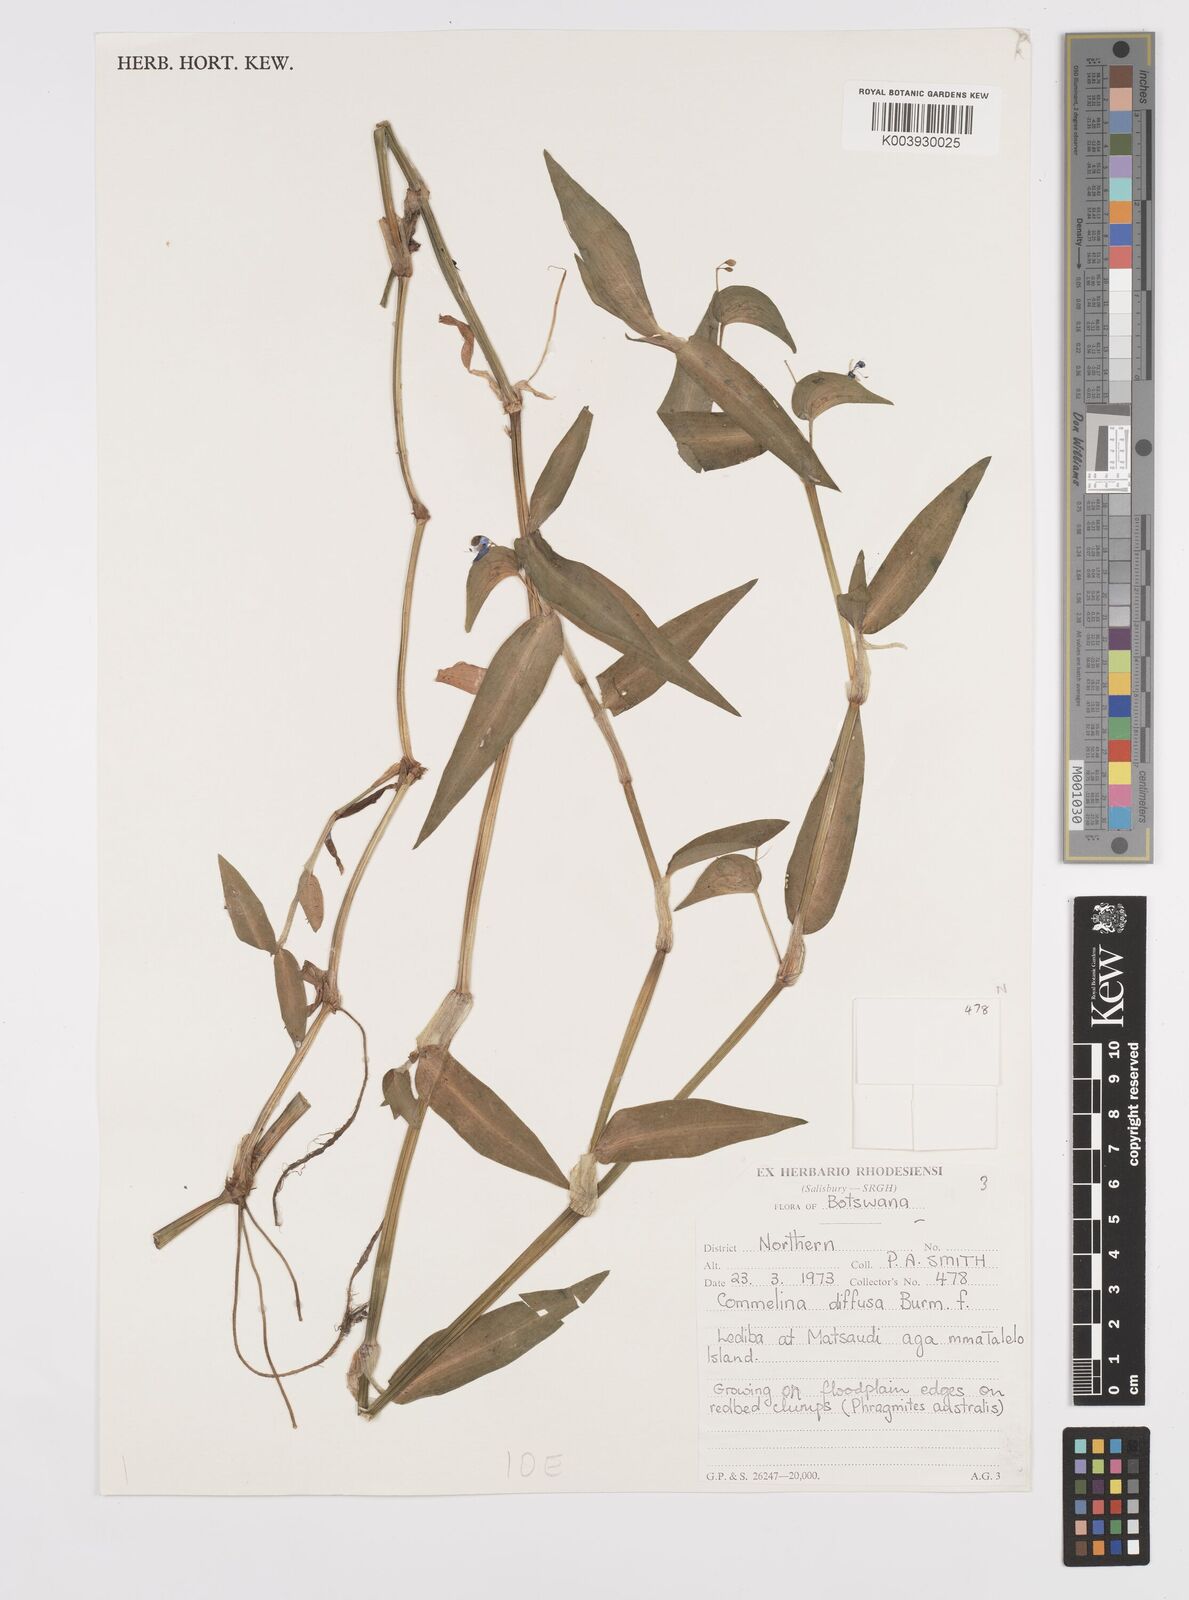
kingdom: Plantae
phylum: Tracheophyta
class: Liliopsida
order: Commelinales
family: Commelinaceae
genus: Commelina
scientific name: Commelina diffusa
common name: Climbing dayflower
